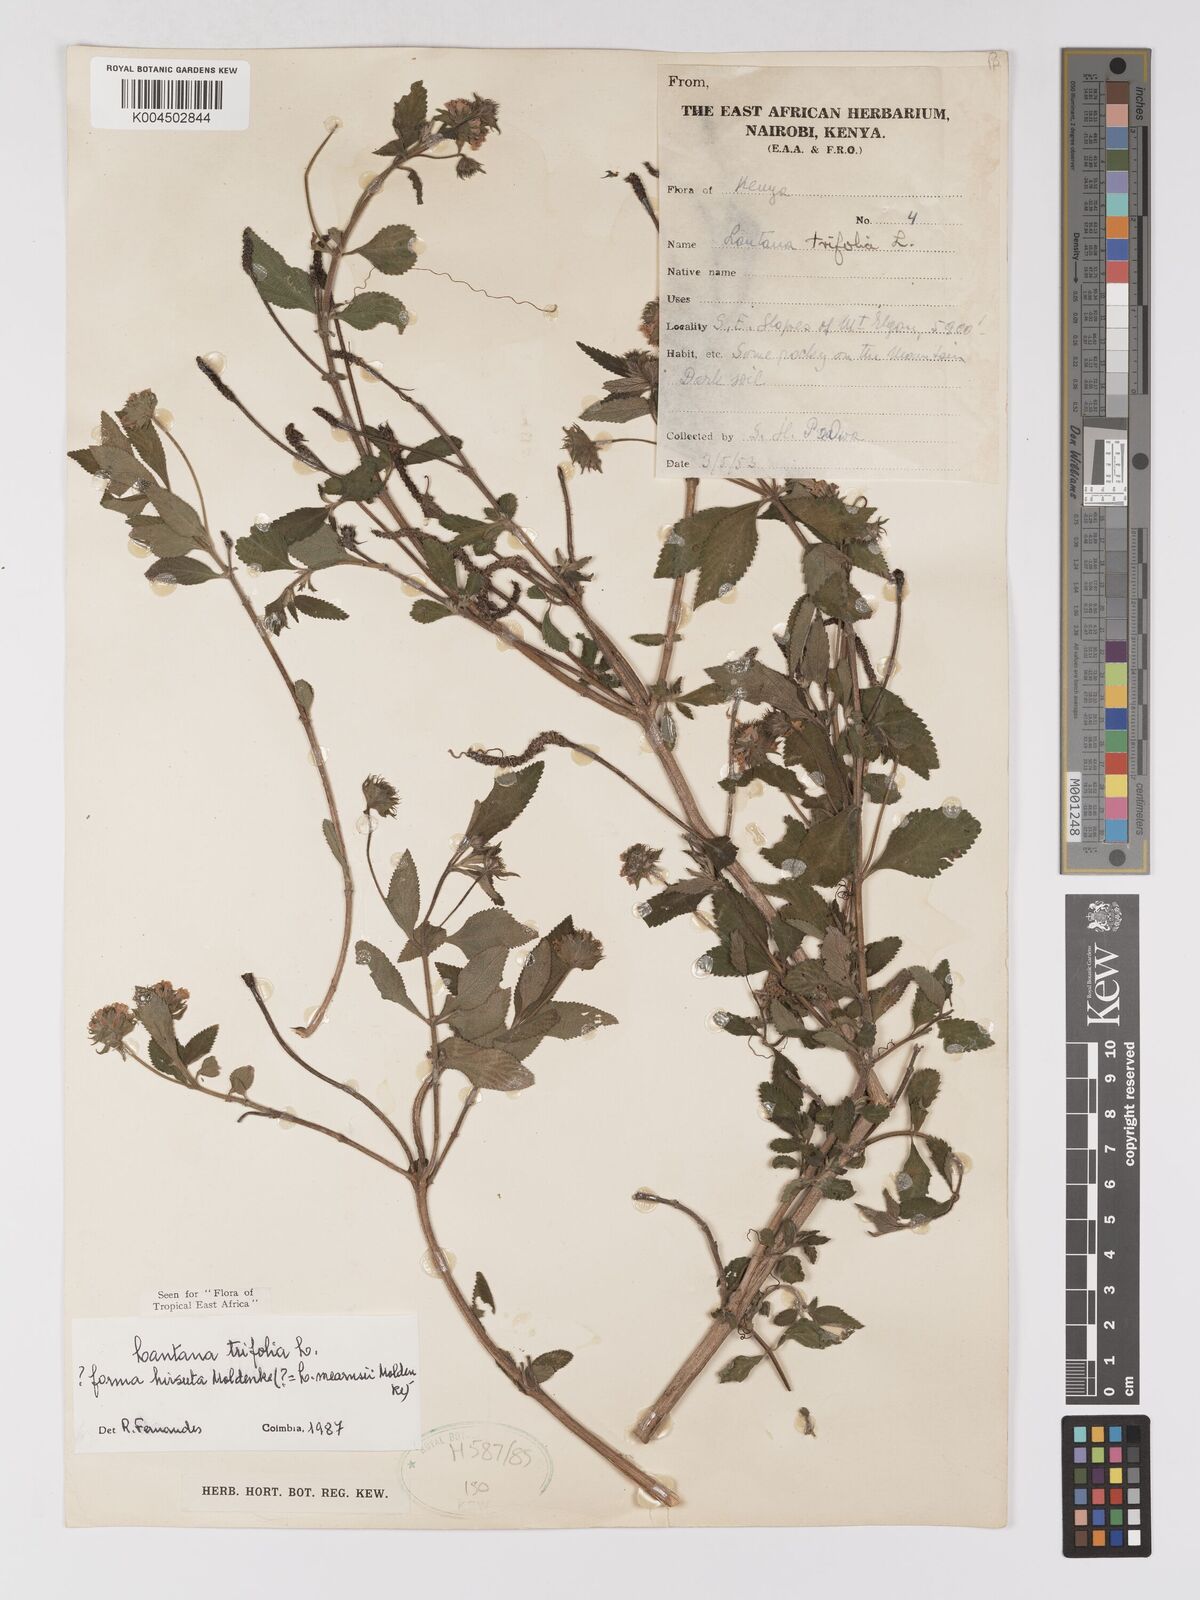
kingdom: Plantae
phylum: Tracheophyta
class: Magnoliopsida
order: Lamiales
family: Verbenaceae
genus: Lantana
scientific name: Lantana trifolia
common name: Sweet-sage
